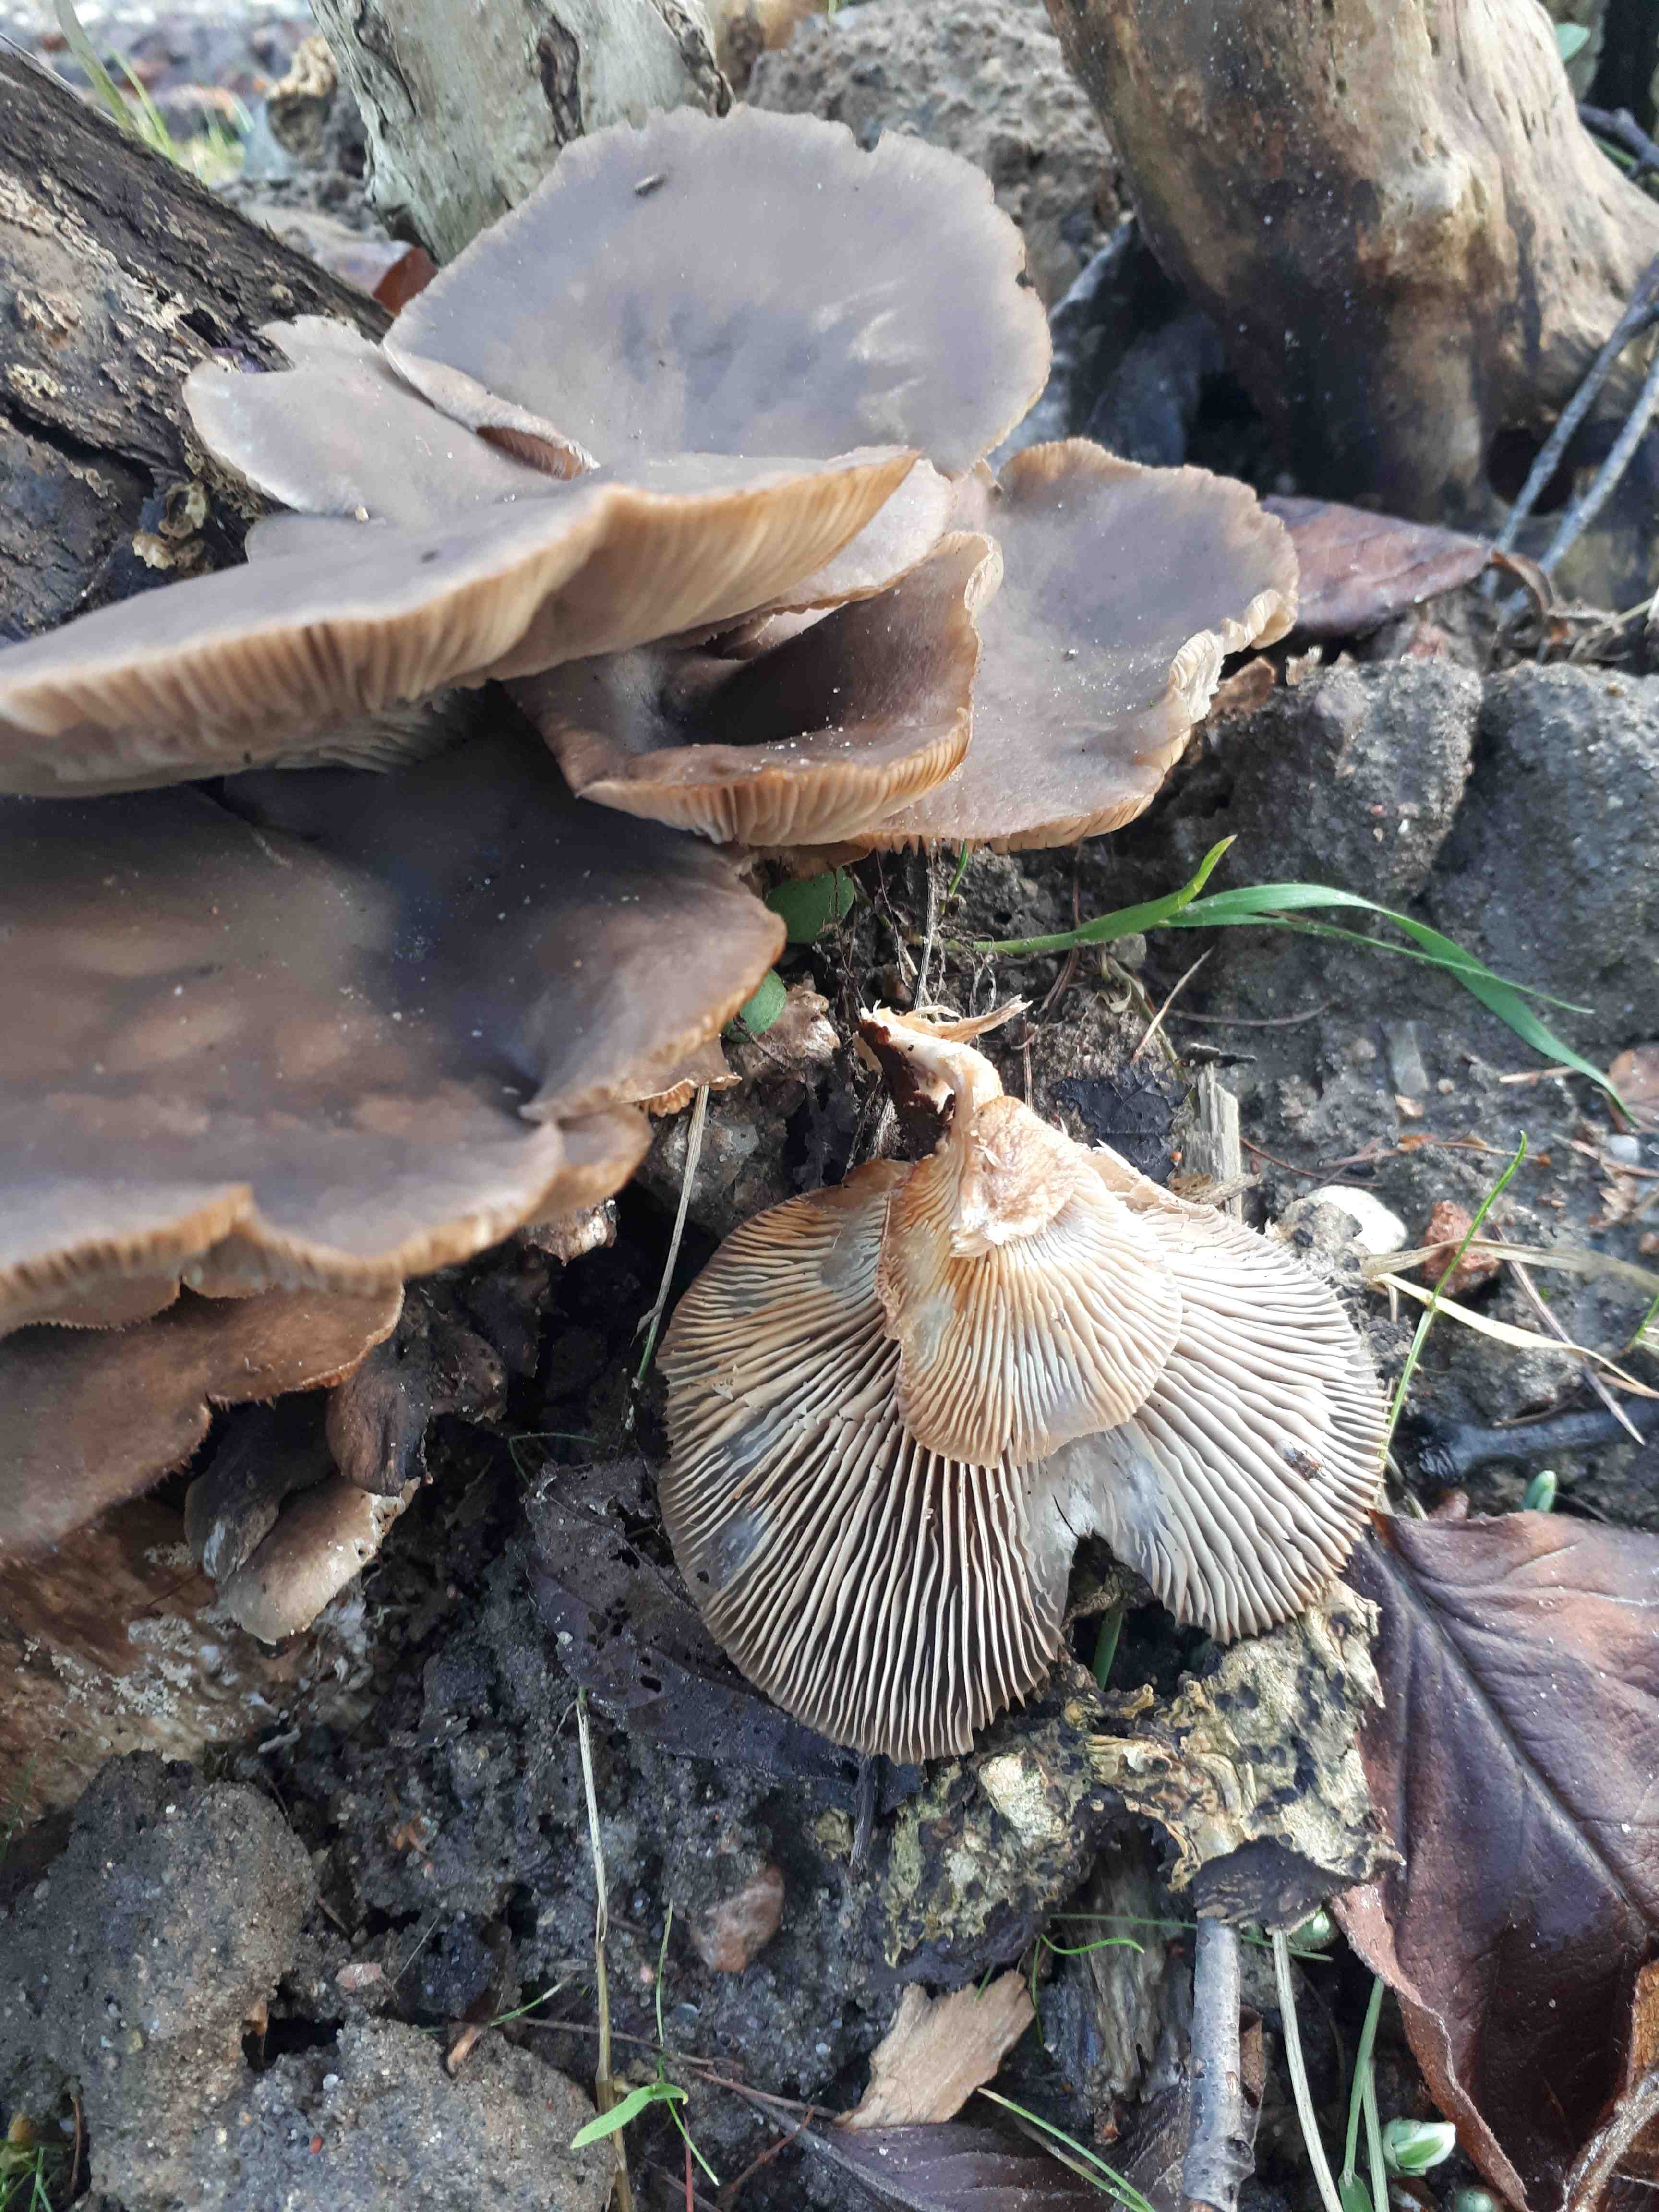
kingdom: Fungi
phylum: Basidiomycota
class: Agaricomycetes
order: Agaricales
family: Pleurotaceae
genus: Pleurotus
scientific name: Pleurotus ostreatus
